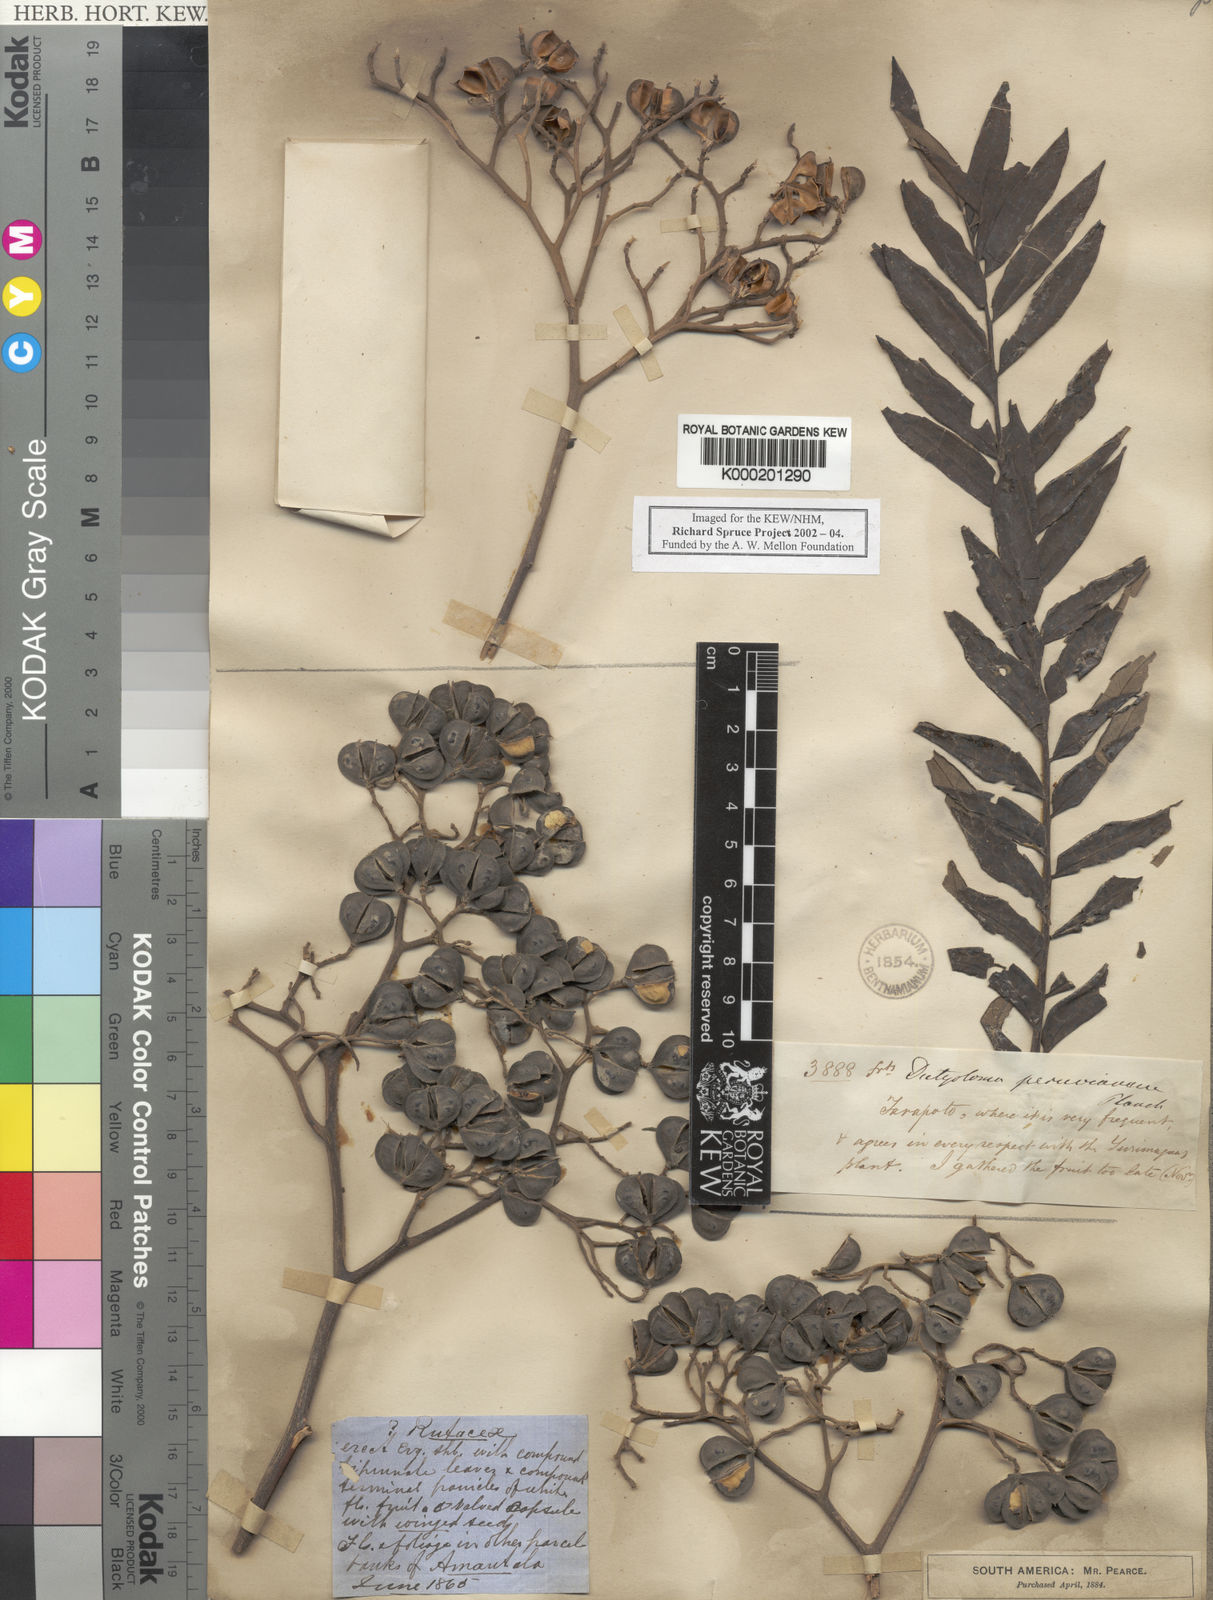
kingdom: Plantae
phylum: Tracheophyta
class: Magnoliopsida
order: Sapindales
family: Rutaceae
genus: Dictyoloma
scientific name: Dictyoloma vandellianum
